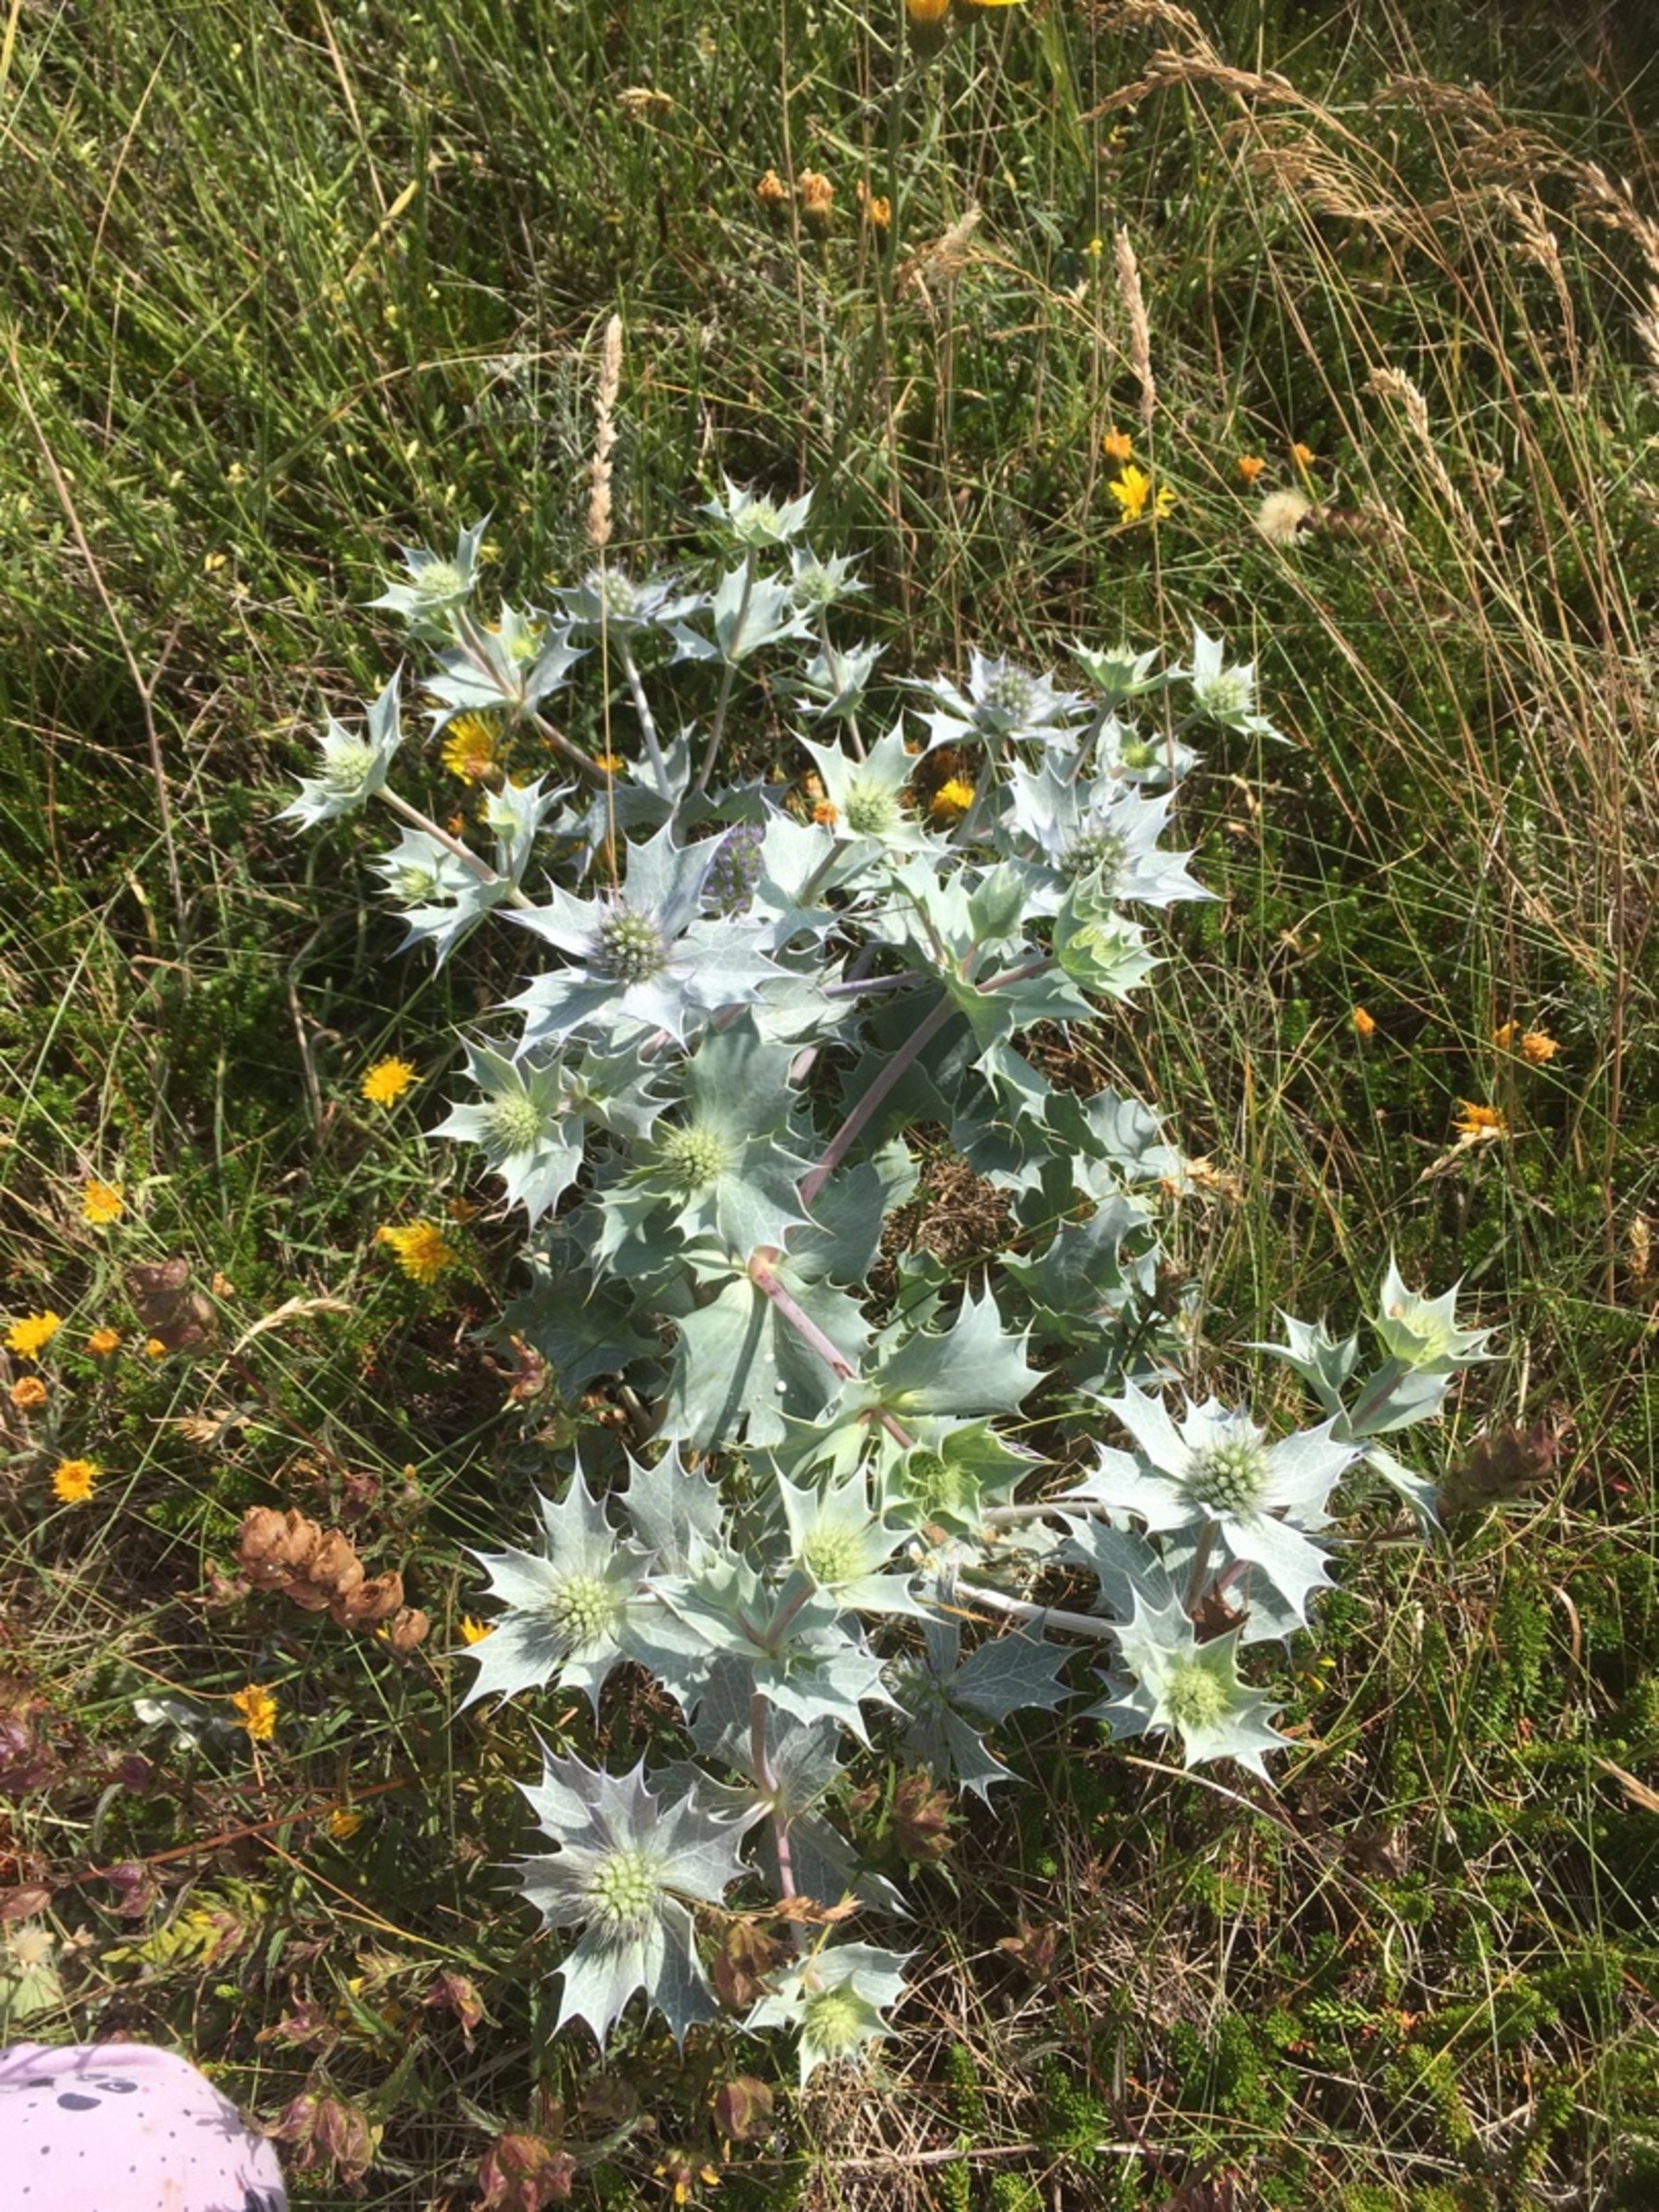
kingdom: Plantae
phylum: Tracheophyta
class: Magnoliopsida
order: Apiales
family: Apiaceae
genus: Eryngium
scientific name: Eryngium maritimum
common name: Strand-mandstro
